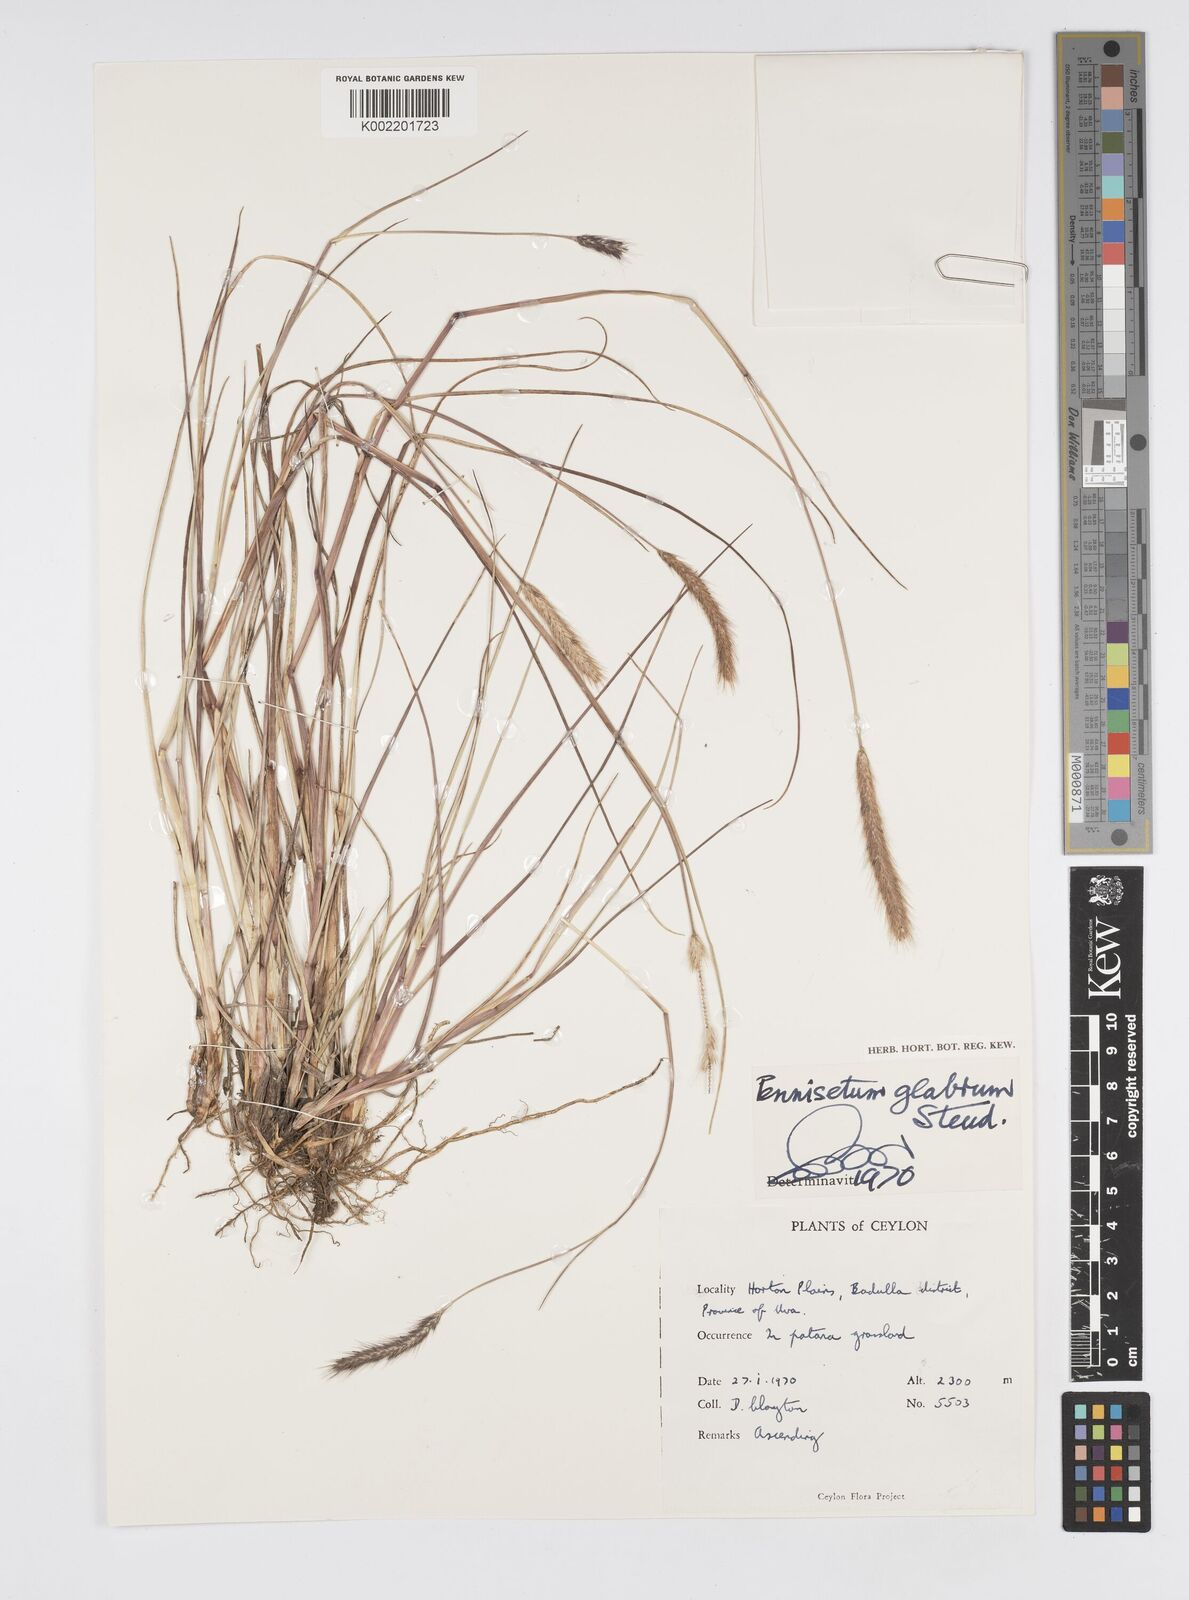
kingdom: Plantae
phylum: Tracheophyta
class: Liliopsida
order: Poales
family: Poaceae
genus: Cenchrus
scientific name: Cenchrus geniculatus
